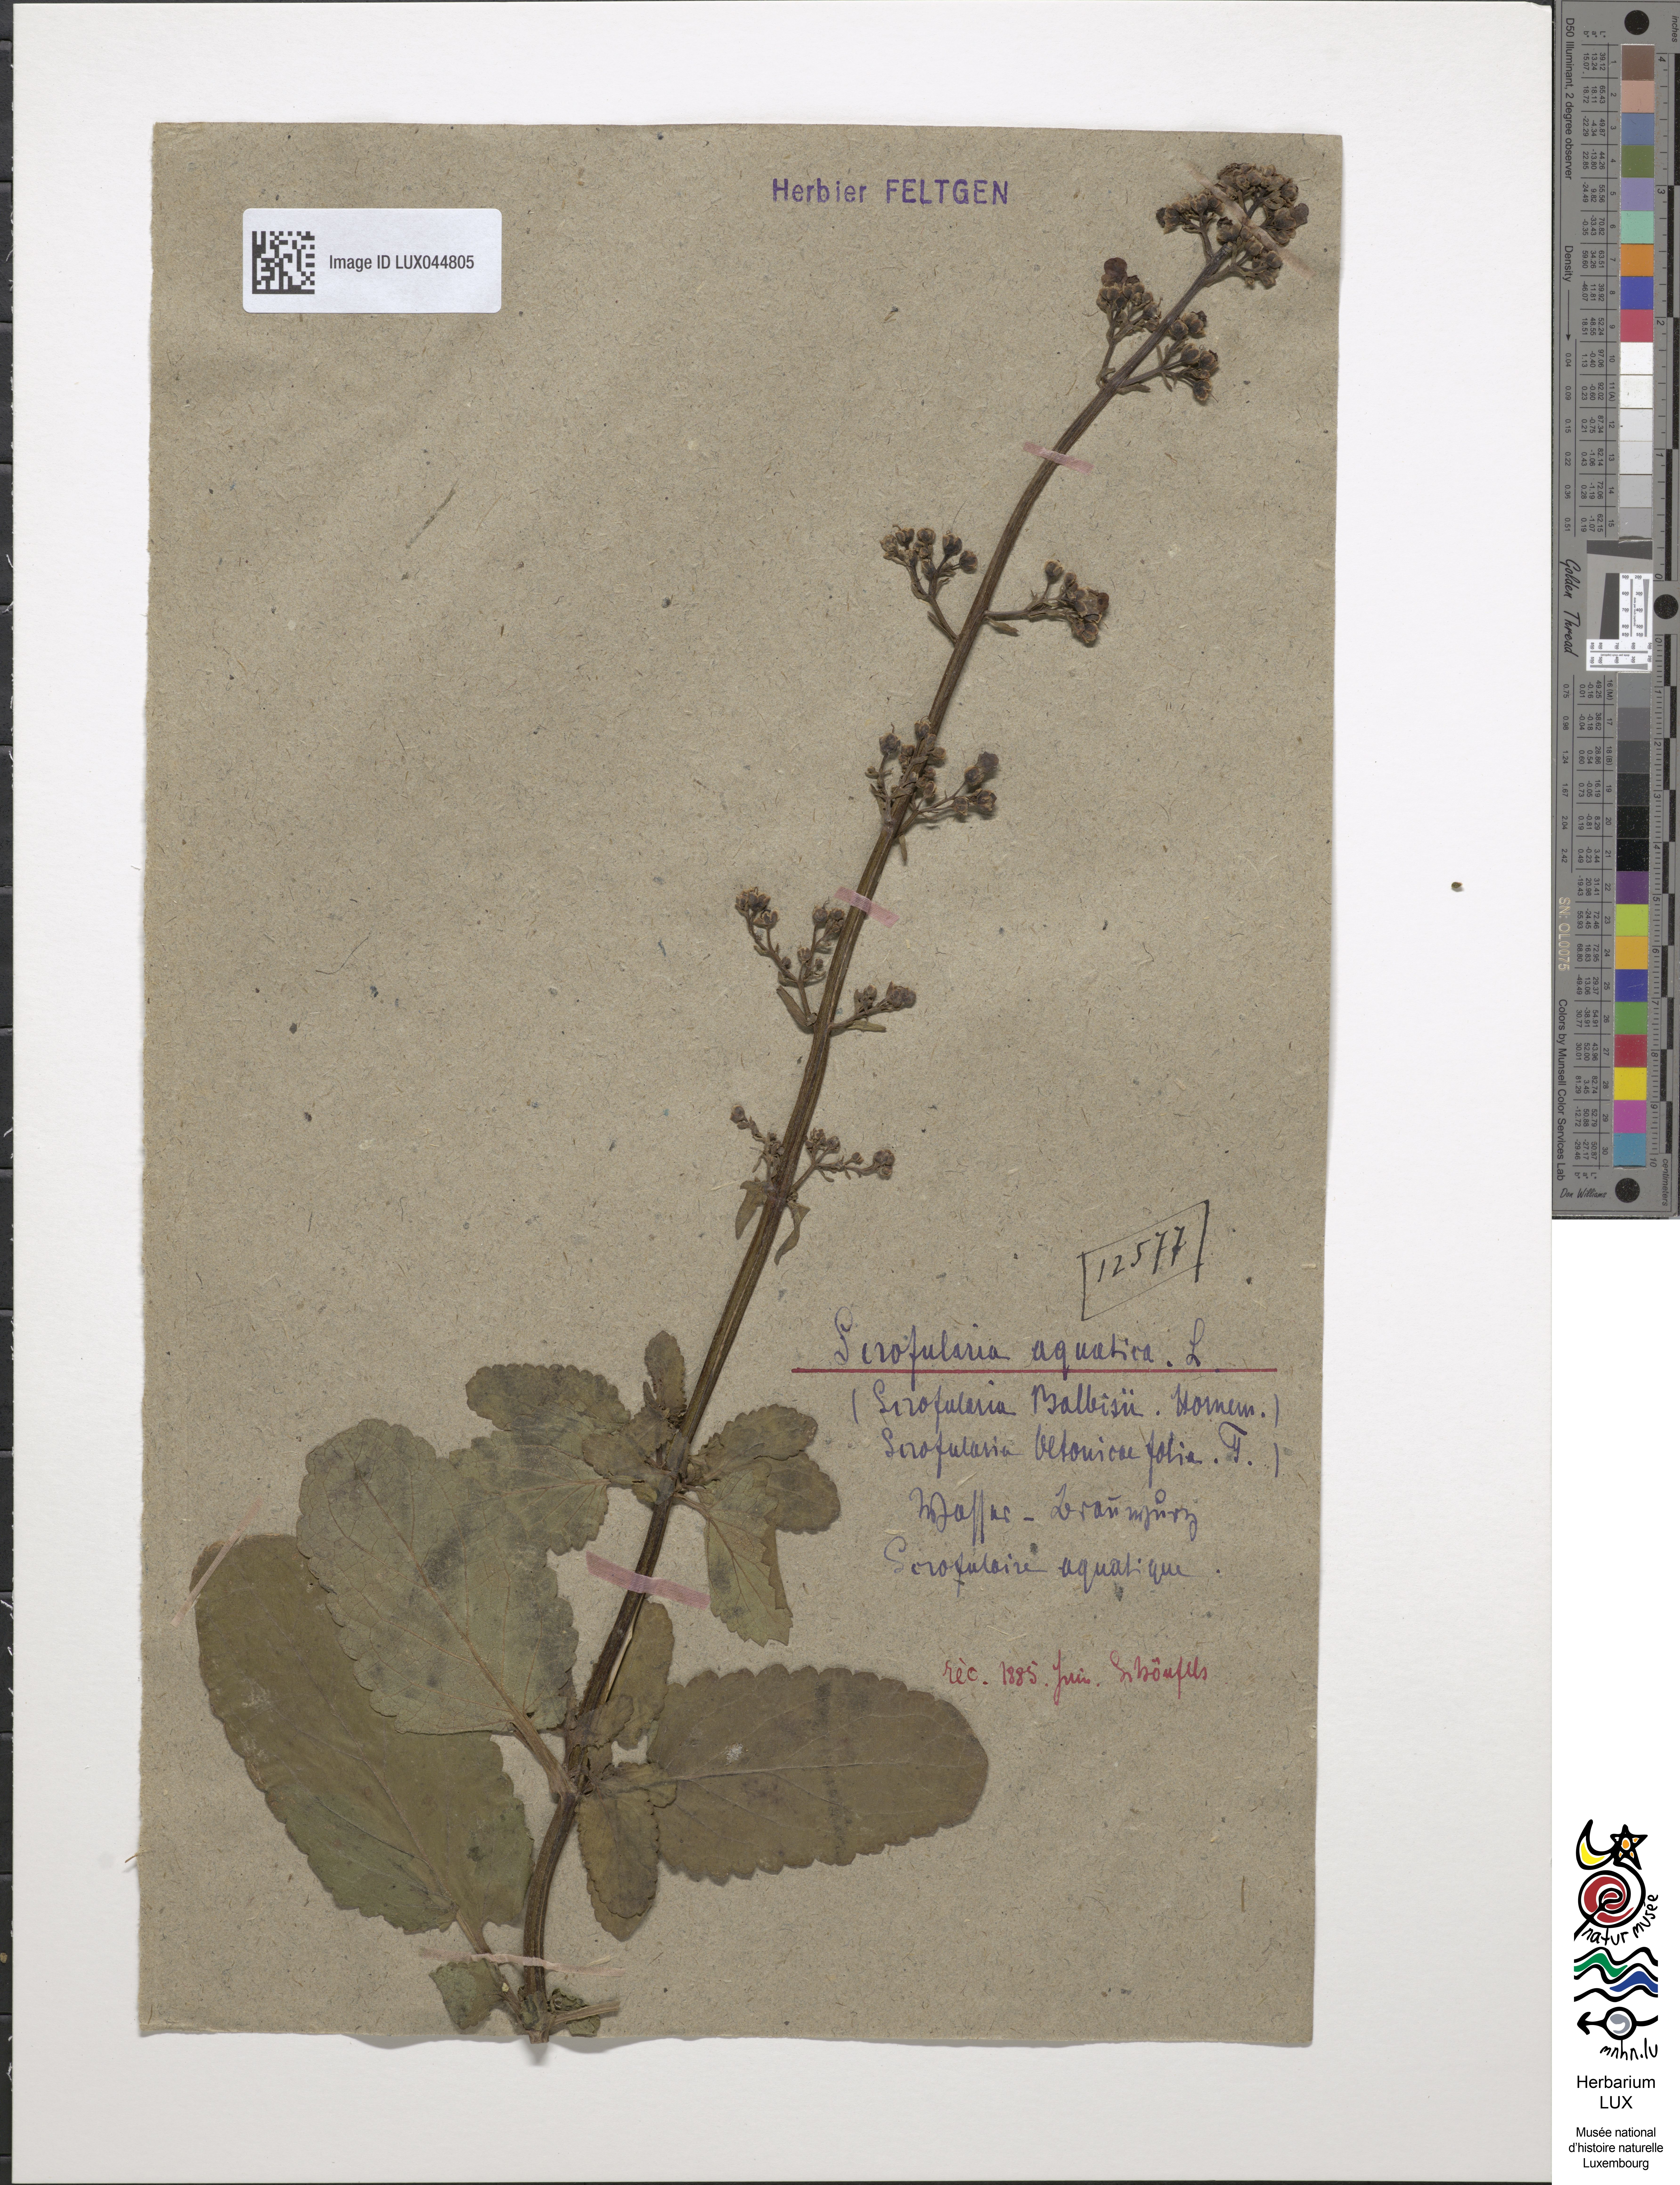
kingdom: Plantae
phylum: Tracheophyta
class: Magnoliopsida
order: Lamiales
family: Scrophulariaceae
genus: Scrophularia
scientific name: Scrophularia auriculata
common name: Water betony
